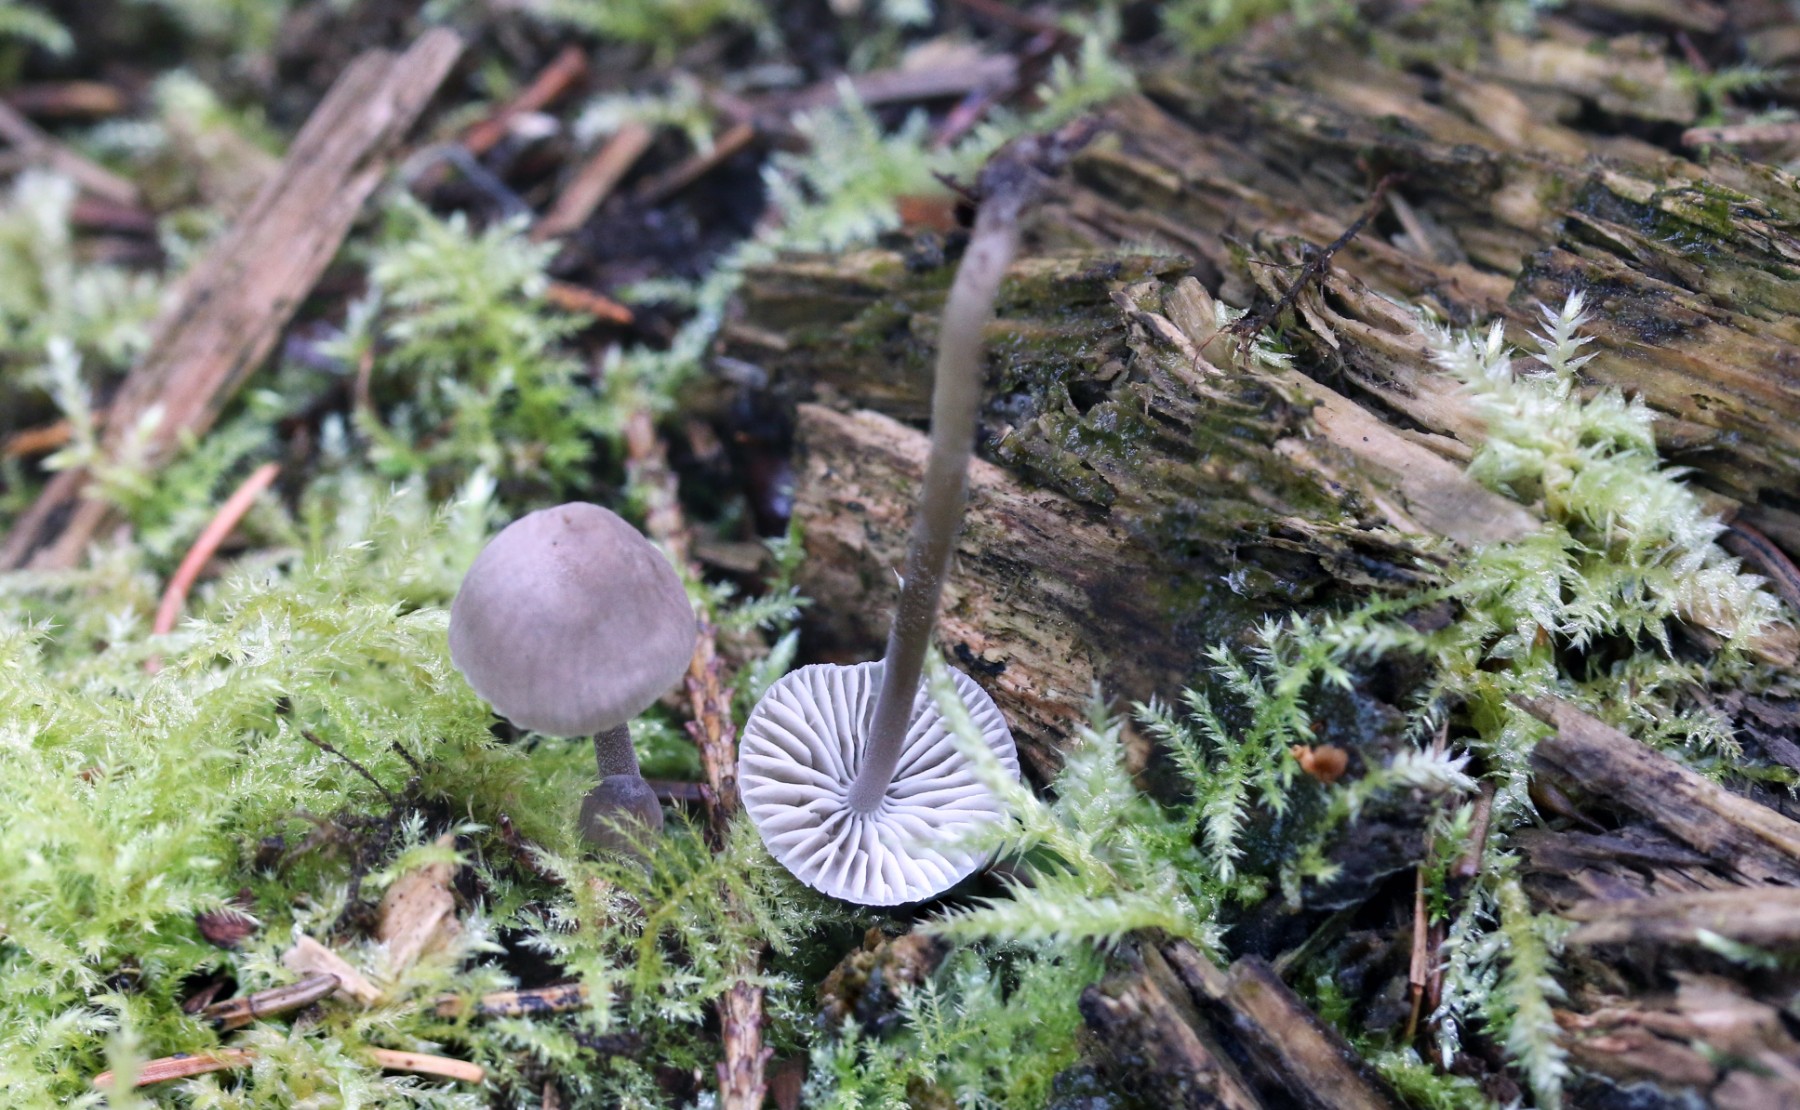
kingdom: Fungi
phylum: Basidiomycota
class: Agaricomycetes
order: Agaricales
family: Mycenaceae
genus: Mycena
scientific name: Mycena leptocephala
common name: klor-huesvamp
